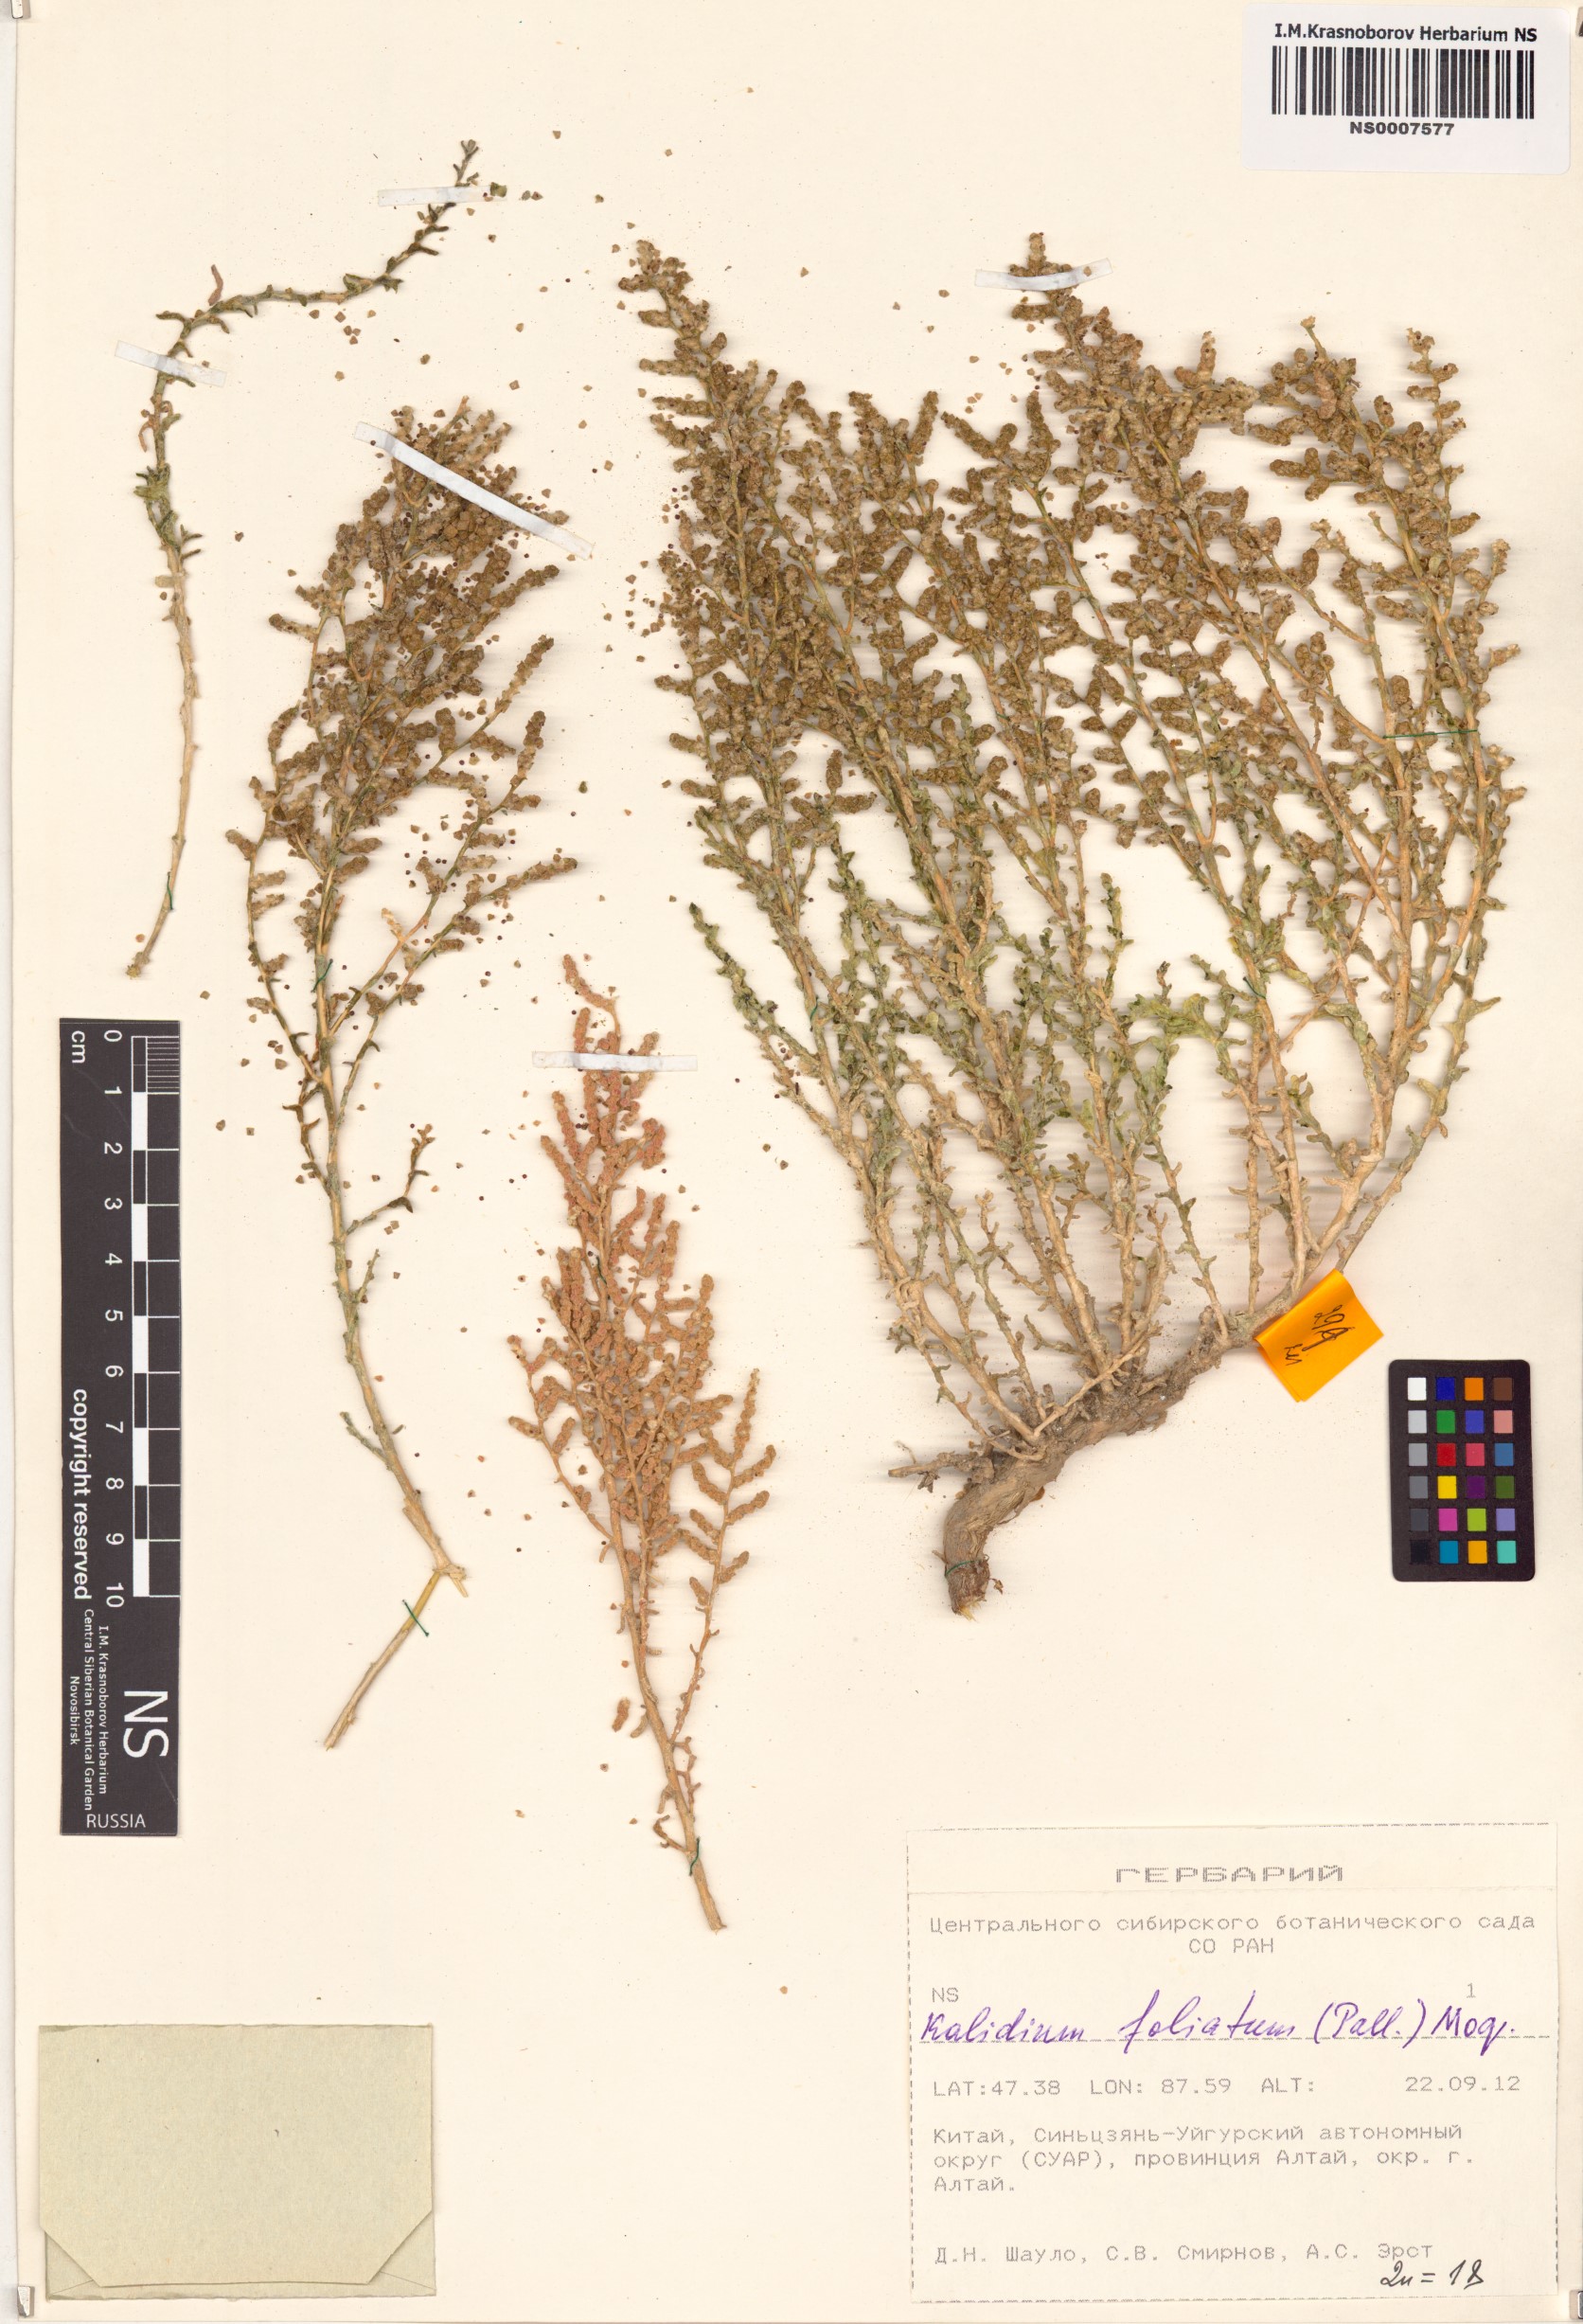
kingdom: Plantae
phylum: Tracheophyta
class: Magnoliopsida
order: Caryophyllales
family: Amaranthaceae
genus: Kalidium
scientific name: Kalidium foliatum
